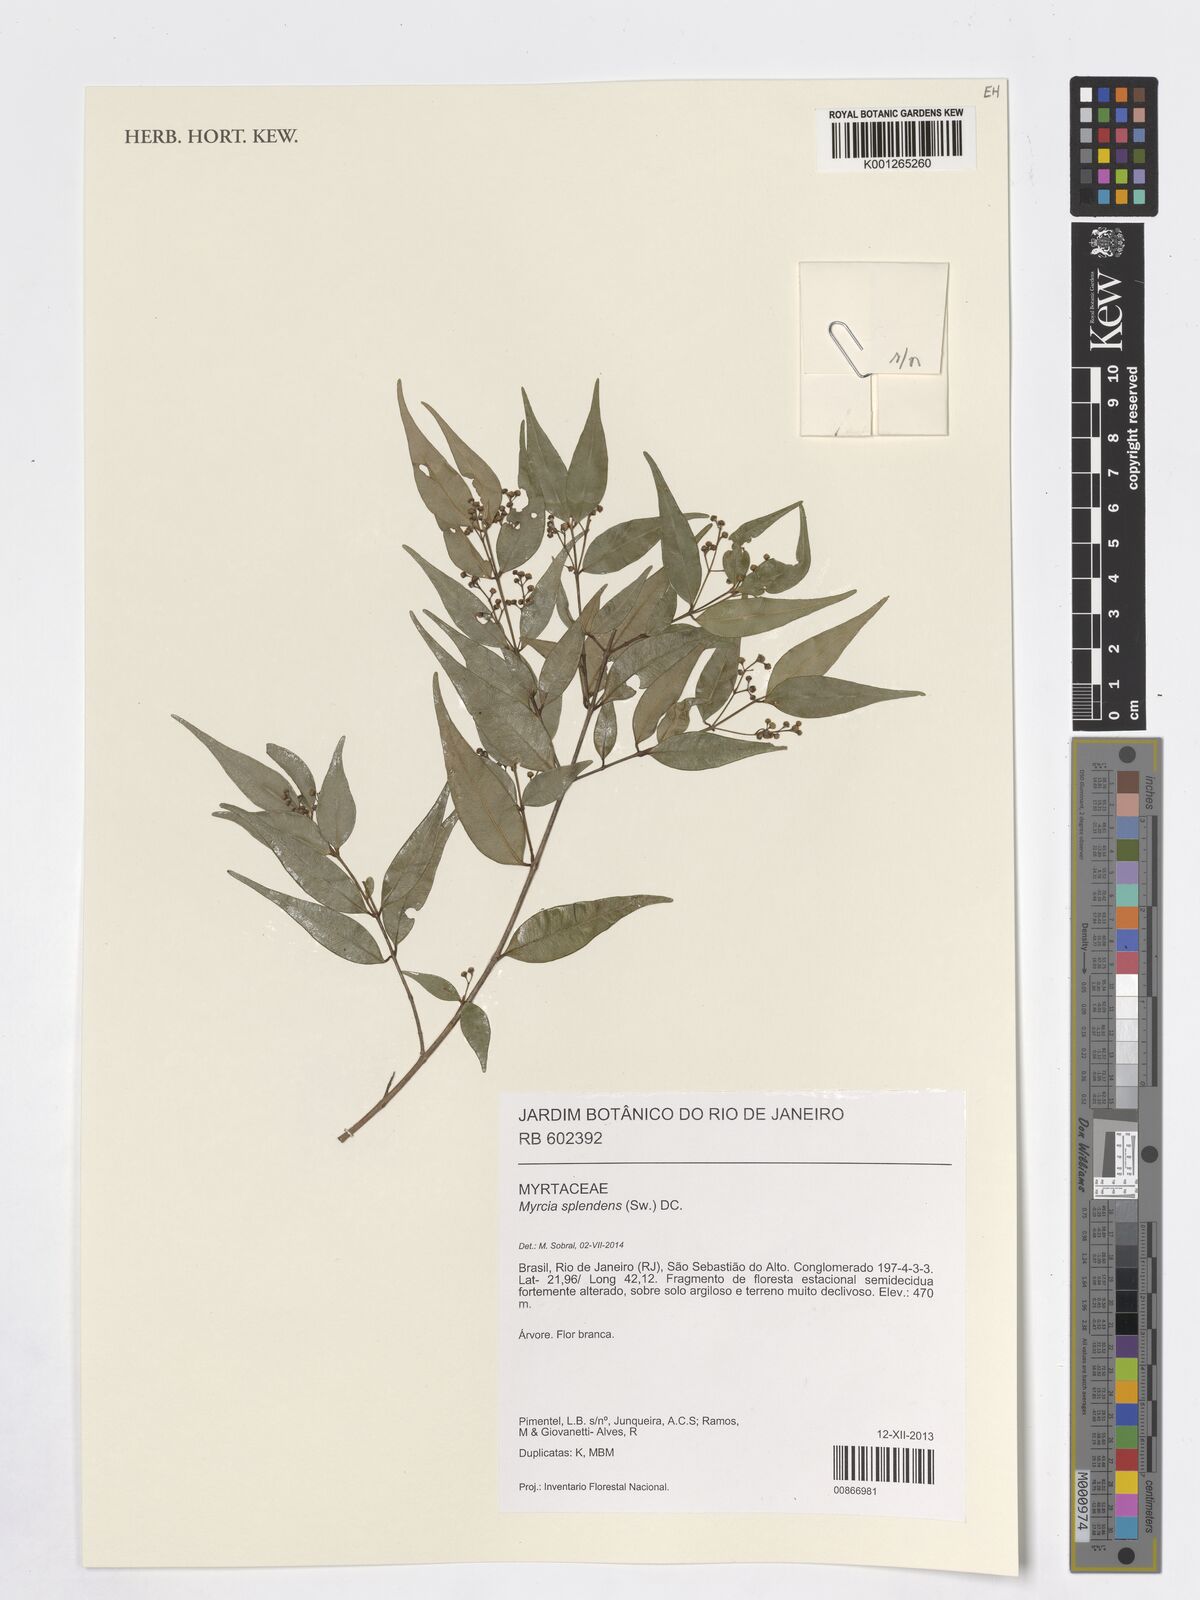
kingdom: Plantae
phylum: Tracheophyta
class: Magnoliopsida
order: Myrtales
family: Myrtaceae
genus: Myrcia
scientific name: Myrcia splendens
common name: Surinam cherry
